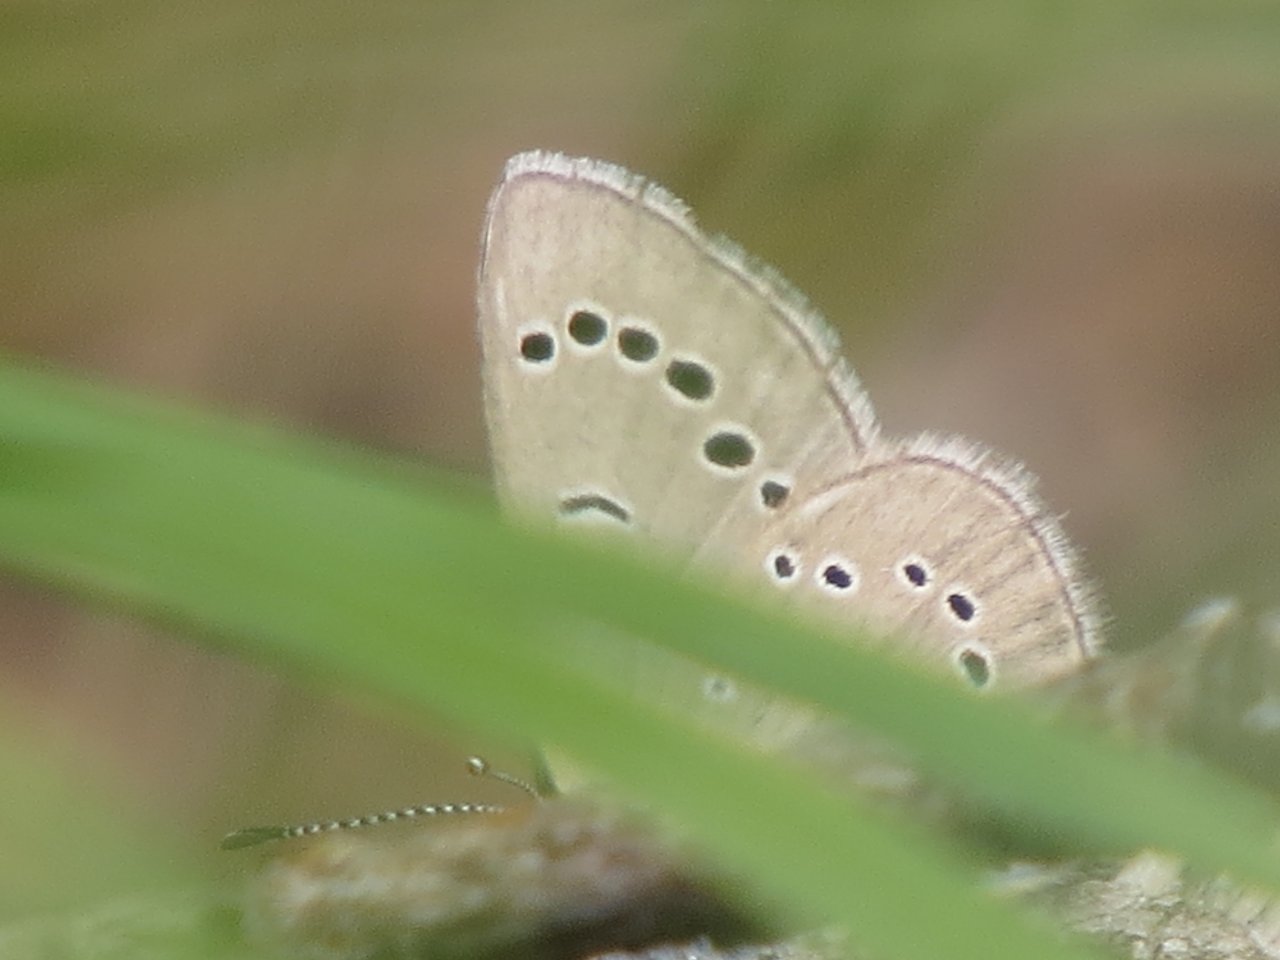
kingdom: Animalia
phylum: Arthropoda
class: Insecta
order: Lepidoptera
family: Lycaenidae
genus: Glaucopsyche
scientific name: Glaucopsyche lygdamus
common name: Silvery Blue
